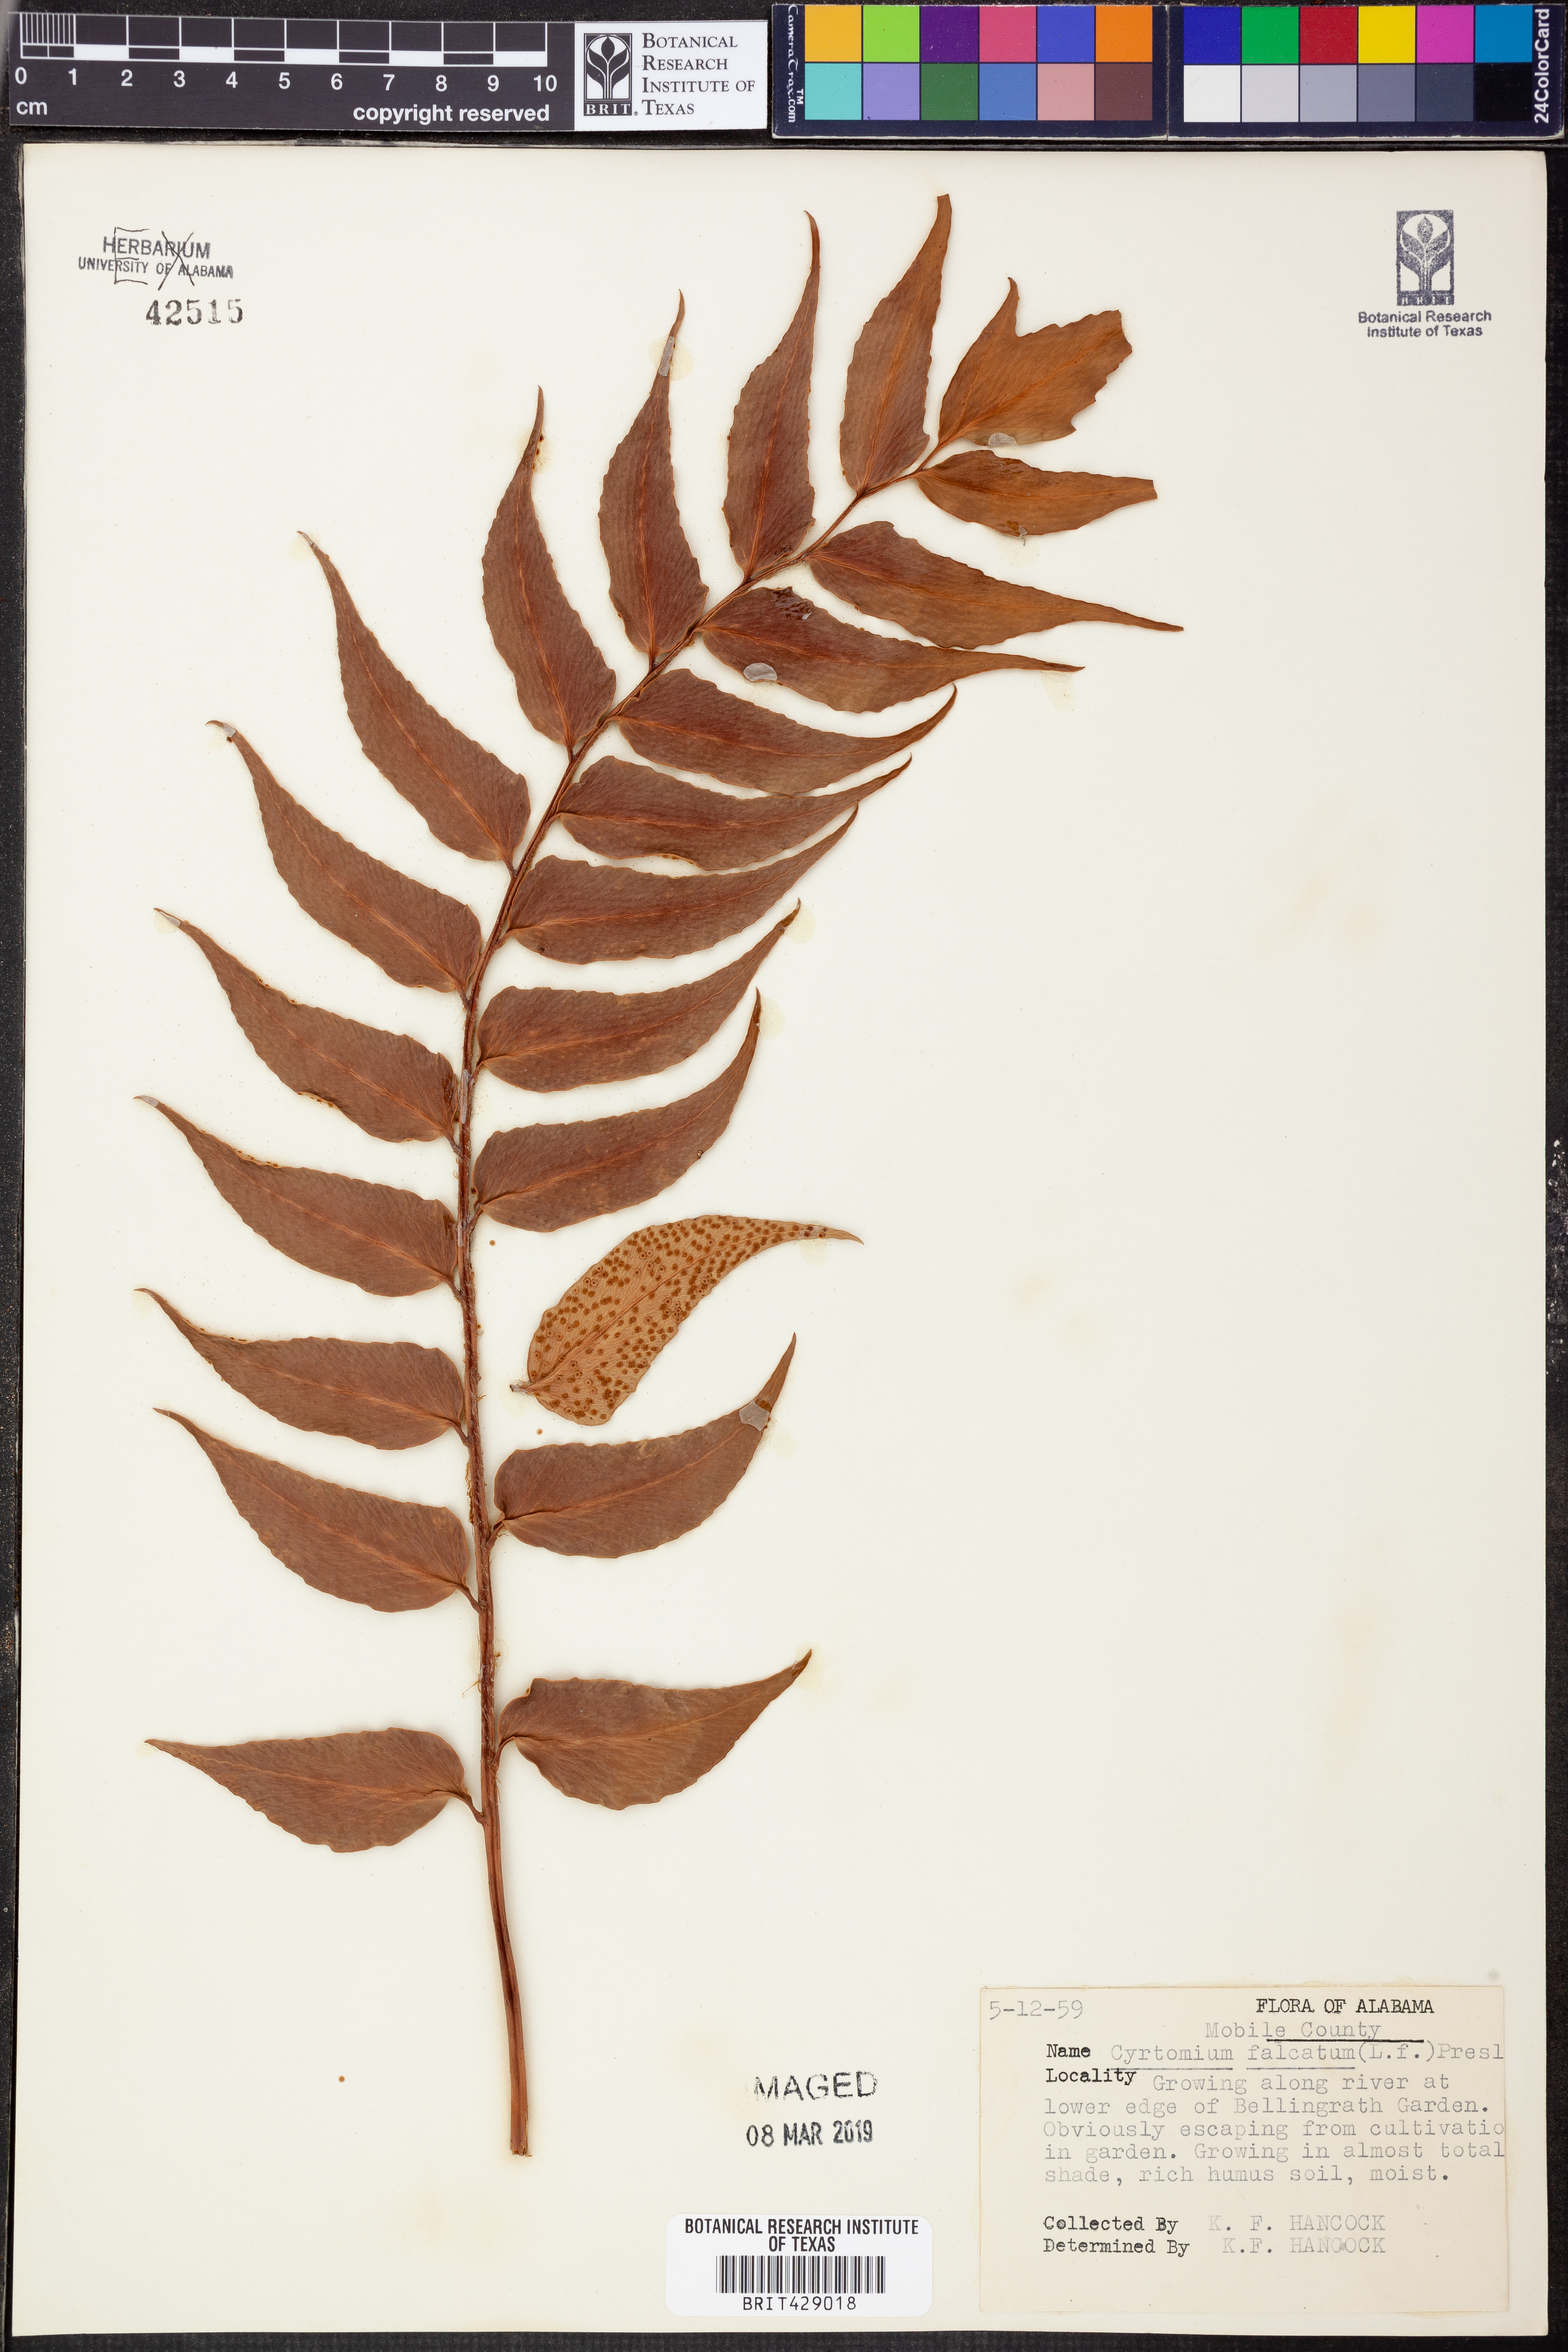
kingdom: Plantae
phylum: Tracheophyta
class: Polypodiopsida
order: Polypodiales
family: Dryopteridaceae
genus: Cyrtomium
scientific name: Cyrtomium falcatum
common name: House holly-fern
